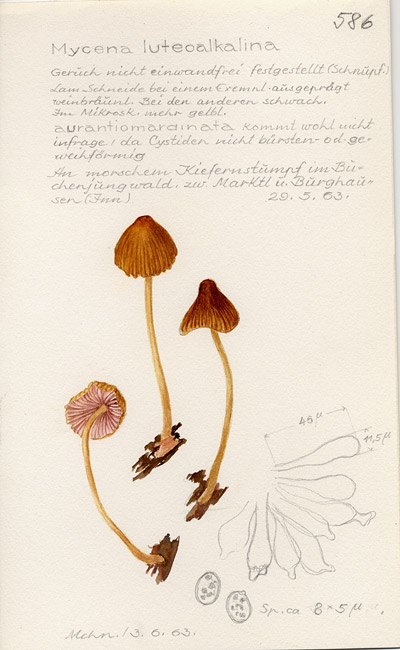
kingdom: Fungi
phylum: Basidiomycota
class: Agaricomycetes
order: Agaricales
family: Mycenaceae
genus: Mycena
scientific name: Mycena renati
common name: Beautiful bonnet
